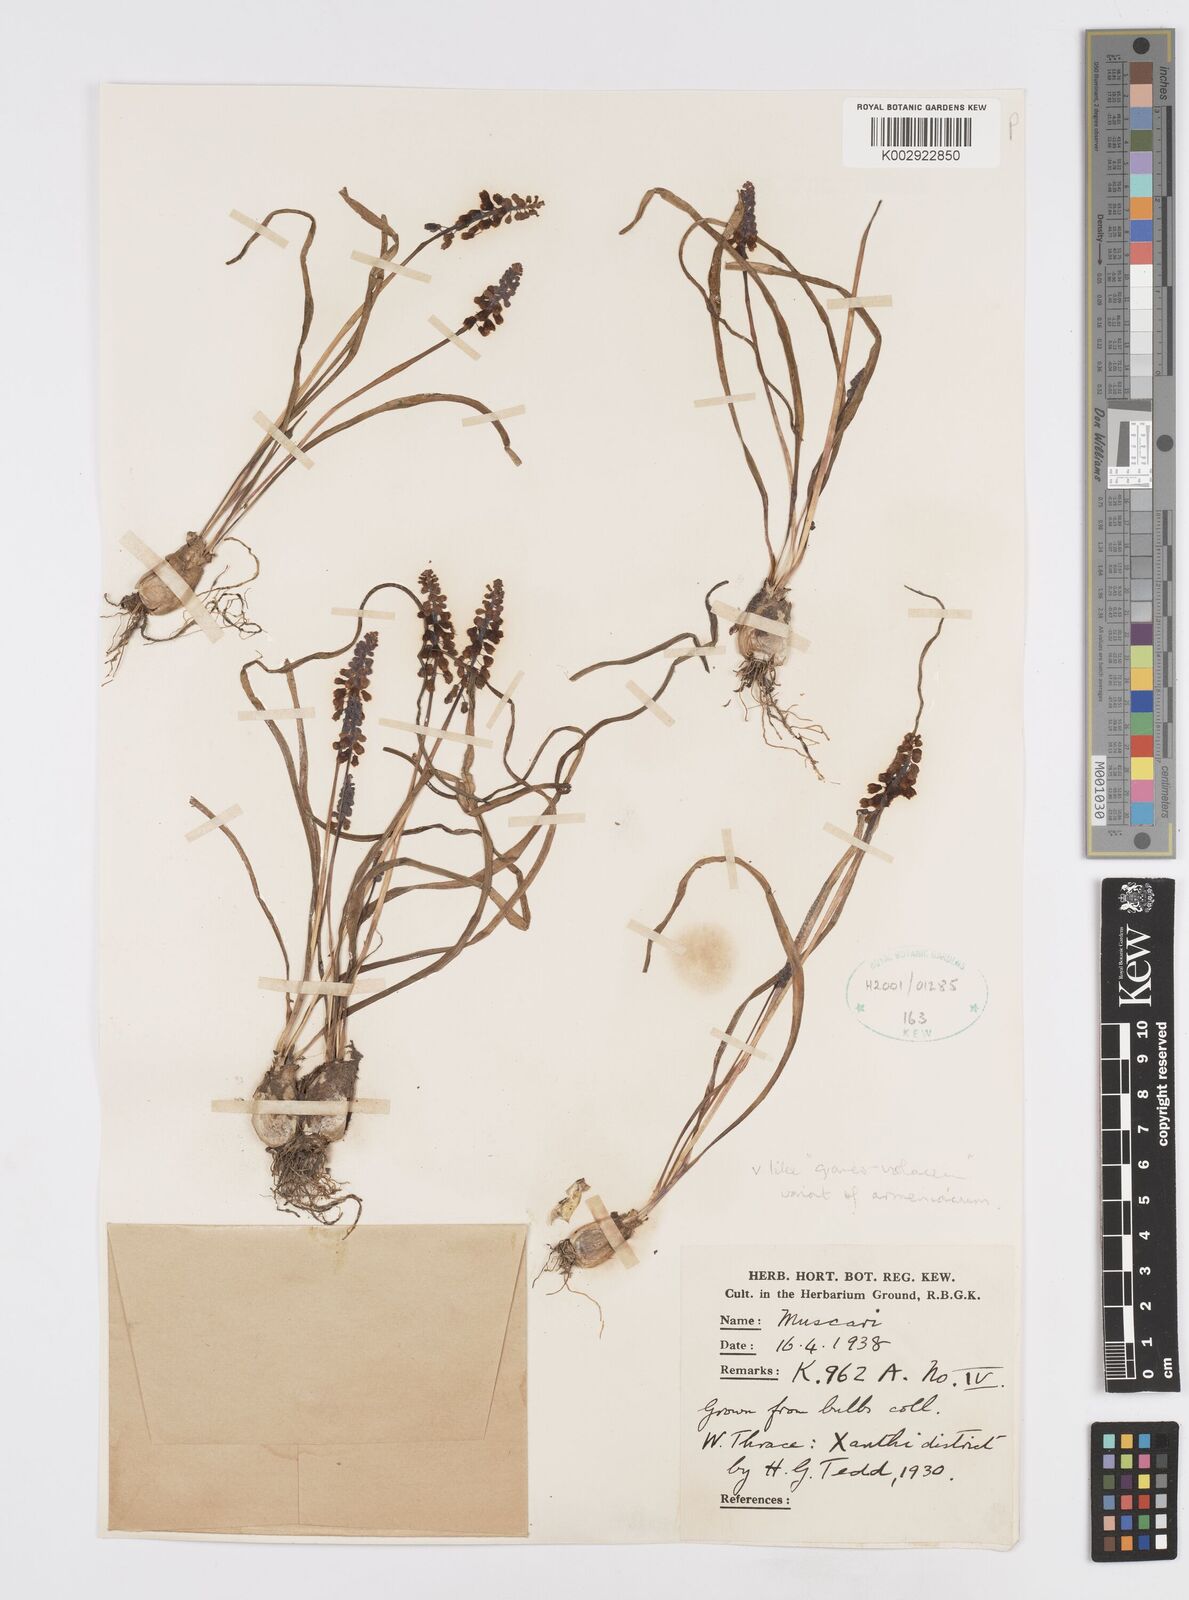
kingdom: Plantae
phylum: Tracheophyta
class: Liliopsida
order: Asparagales
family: Asparagaceae
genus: Muscari
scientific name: Muscari armeniacum
